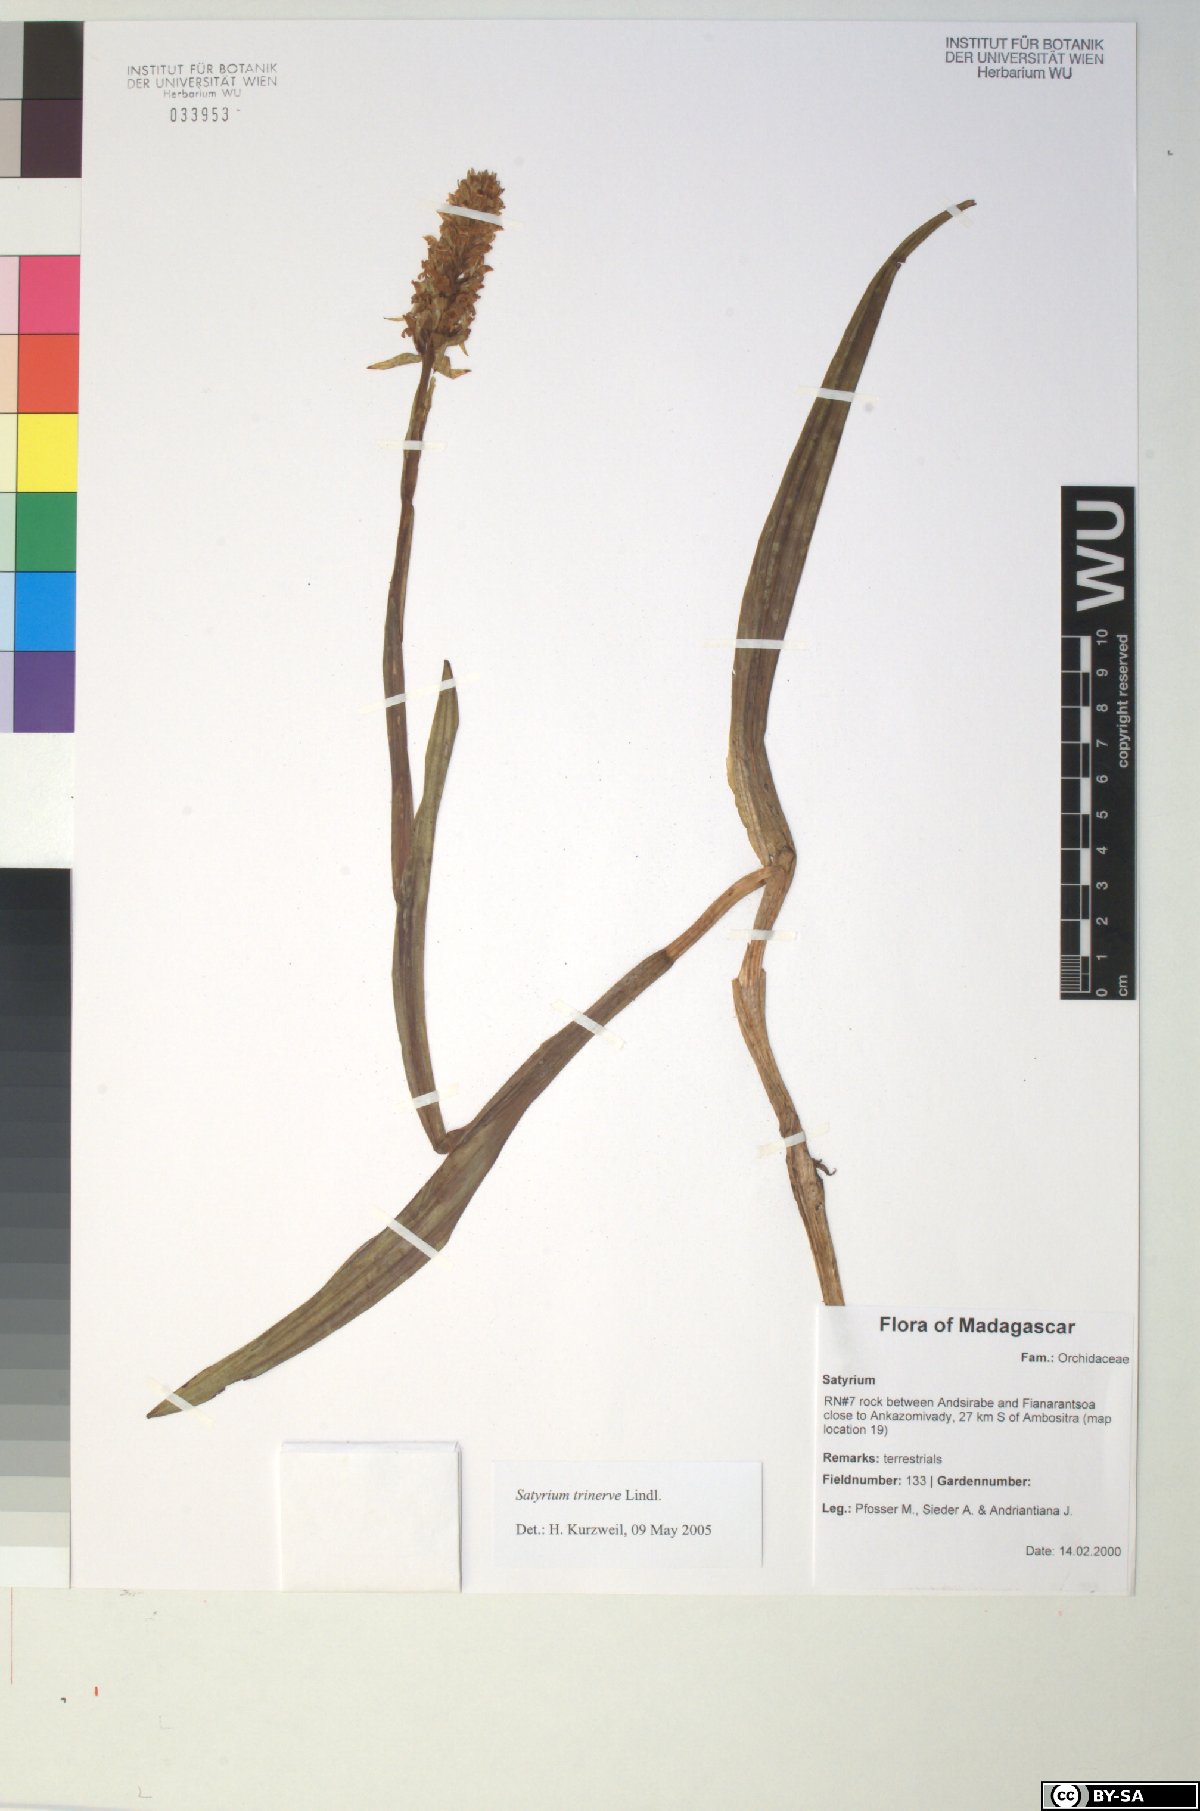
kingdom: Plantae
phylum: Tracheophyta
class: Liliopsida
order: Asparagales
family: Orchidaceae
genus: Satyrium
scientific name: Satyrium trinerve
